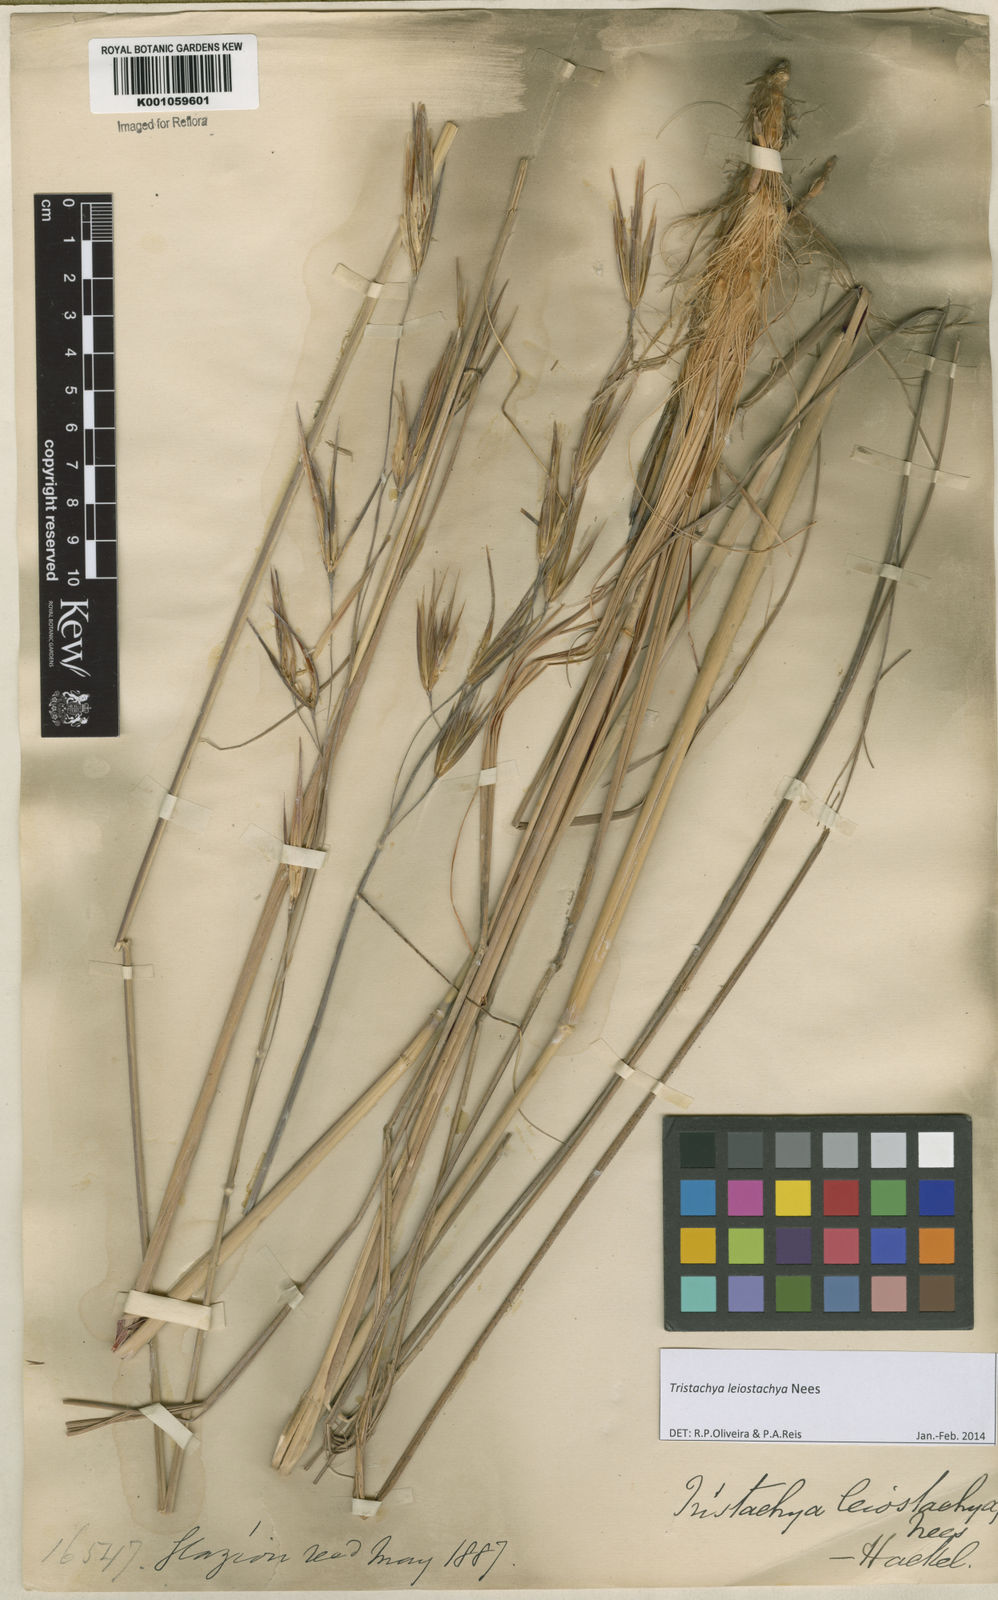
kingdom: Plantae
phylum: Tracheophyta
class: Liliopsida
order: Poales
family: Poaceae
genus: Tristachya
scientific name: Tristachya leiostachya
